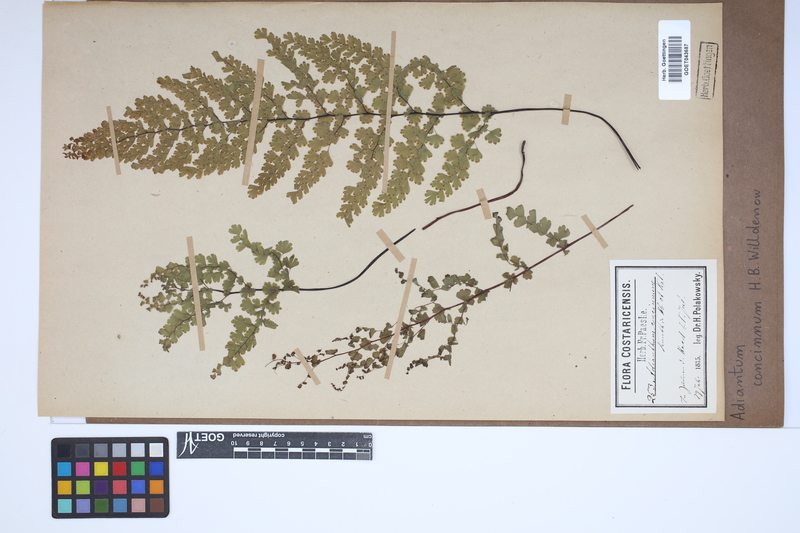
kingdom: Plantae
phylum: Tracheophyta
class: Polypodiopsida
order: Polypodiales
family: Pteridaceae
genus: Adiantum
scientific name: Adiantum concinnum
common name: Brittle maidenhair fern
